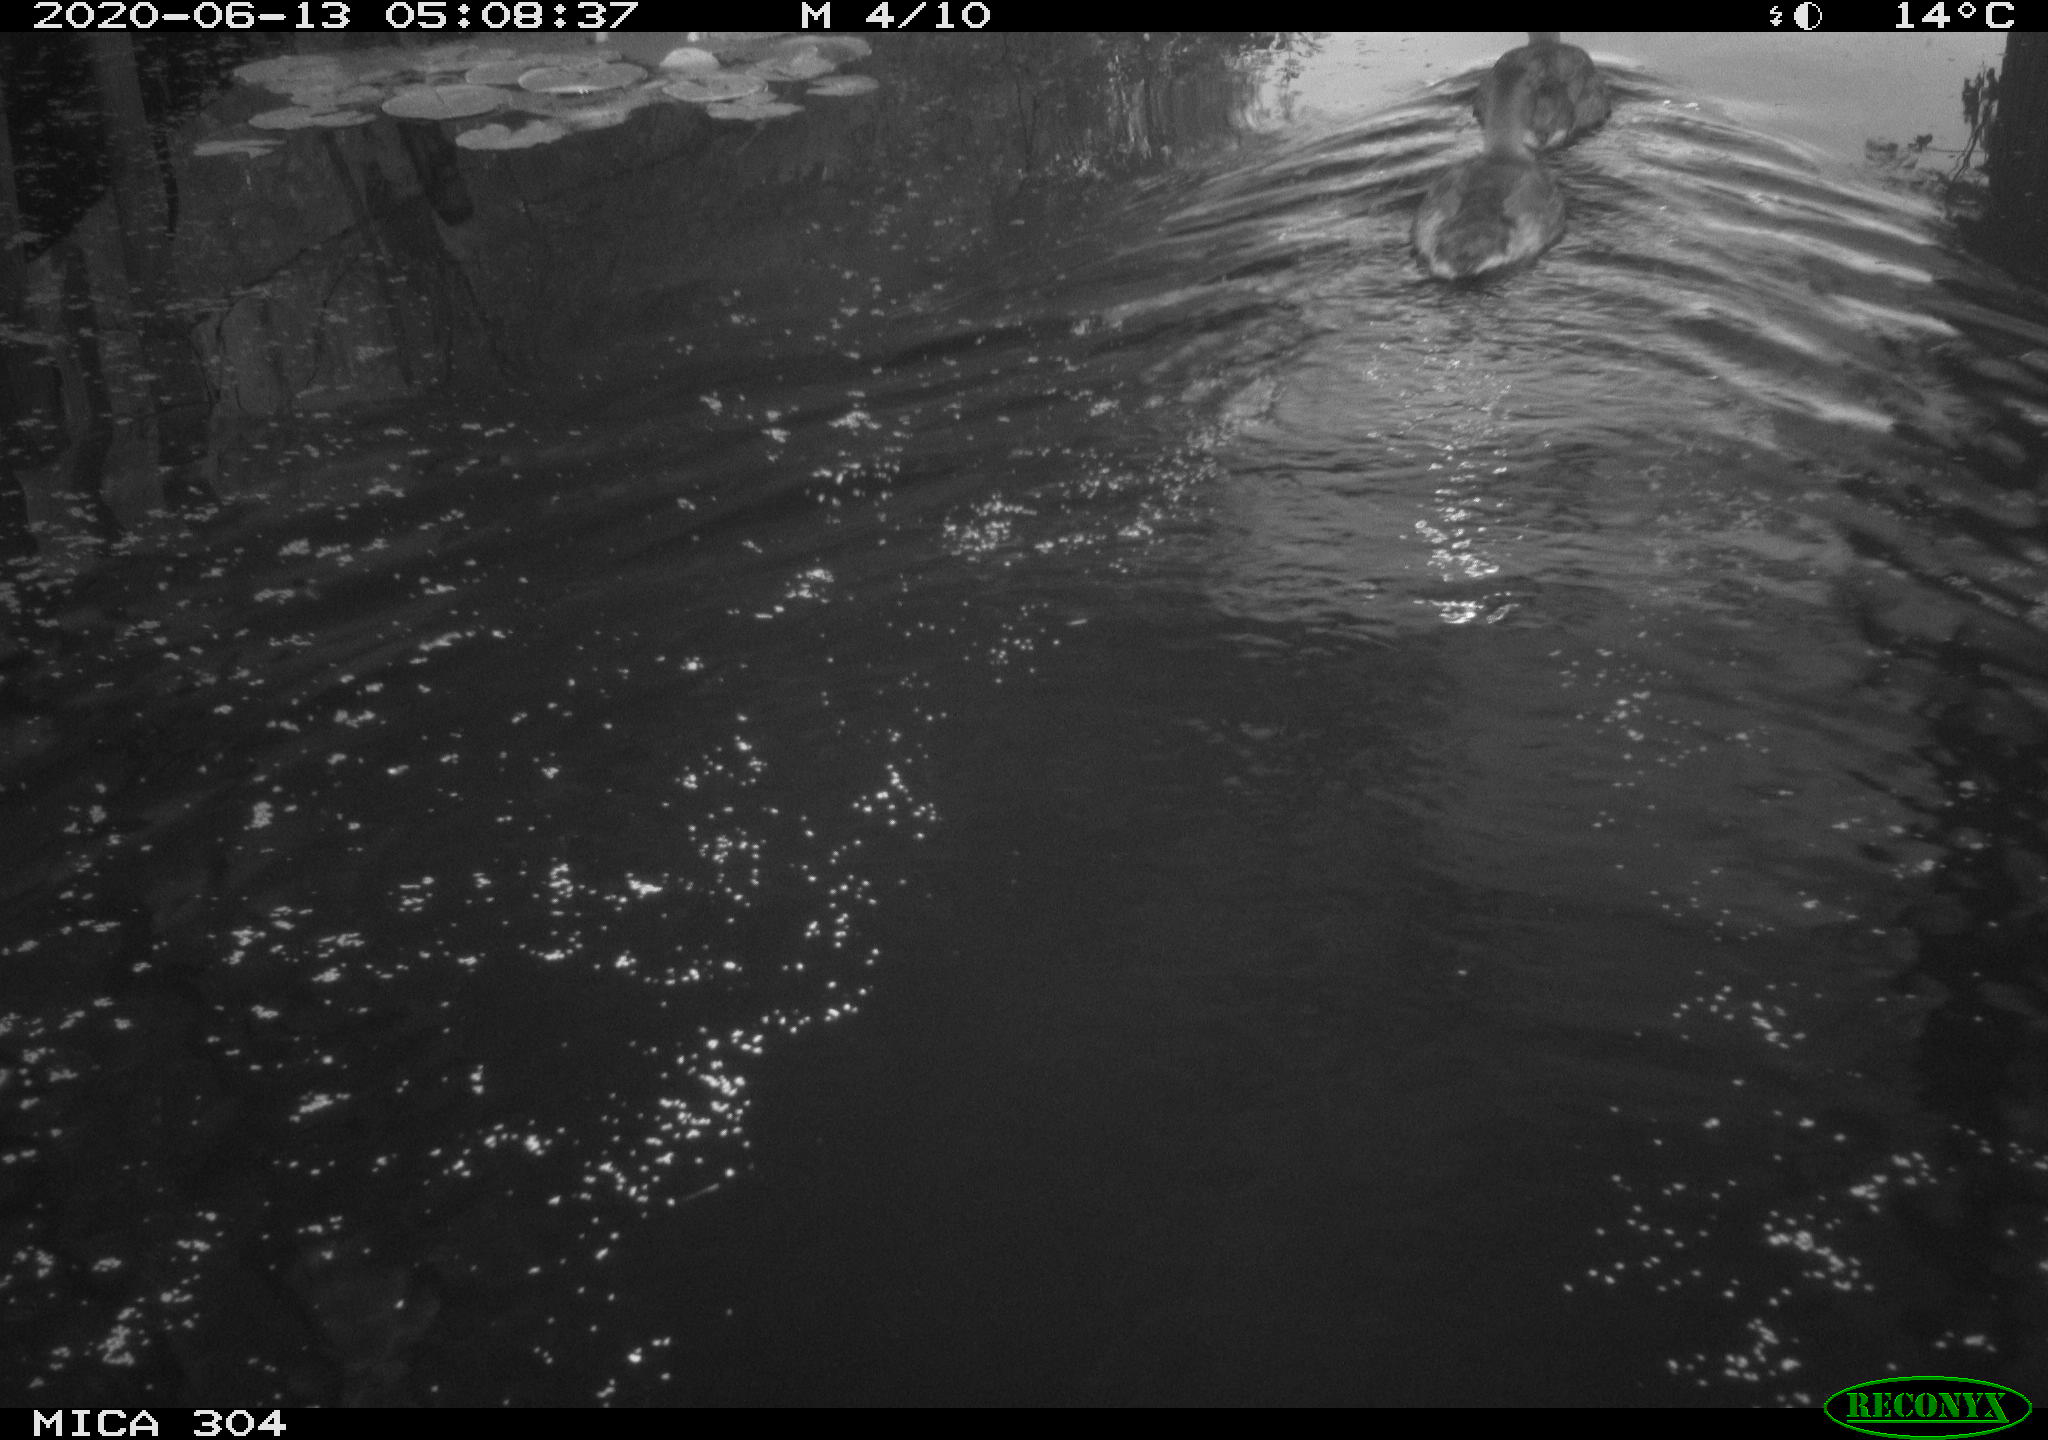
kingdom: Animalia
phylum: Chordata
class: Aves
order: Anseriformes
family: Anatidae
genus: Anas
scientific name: Anas platyrhynchos
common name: Mallard
